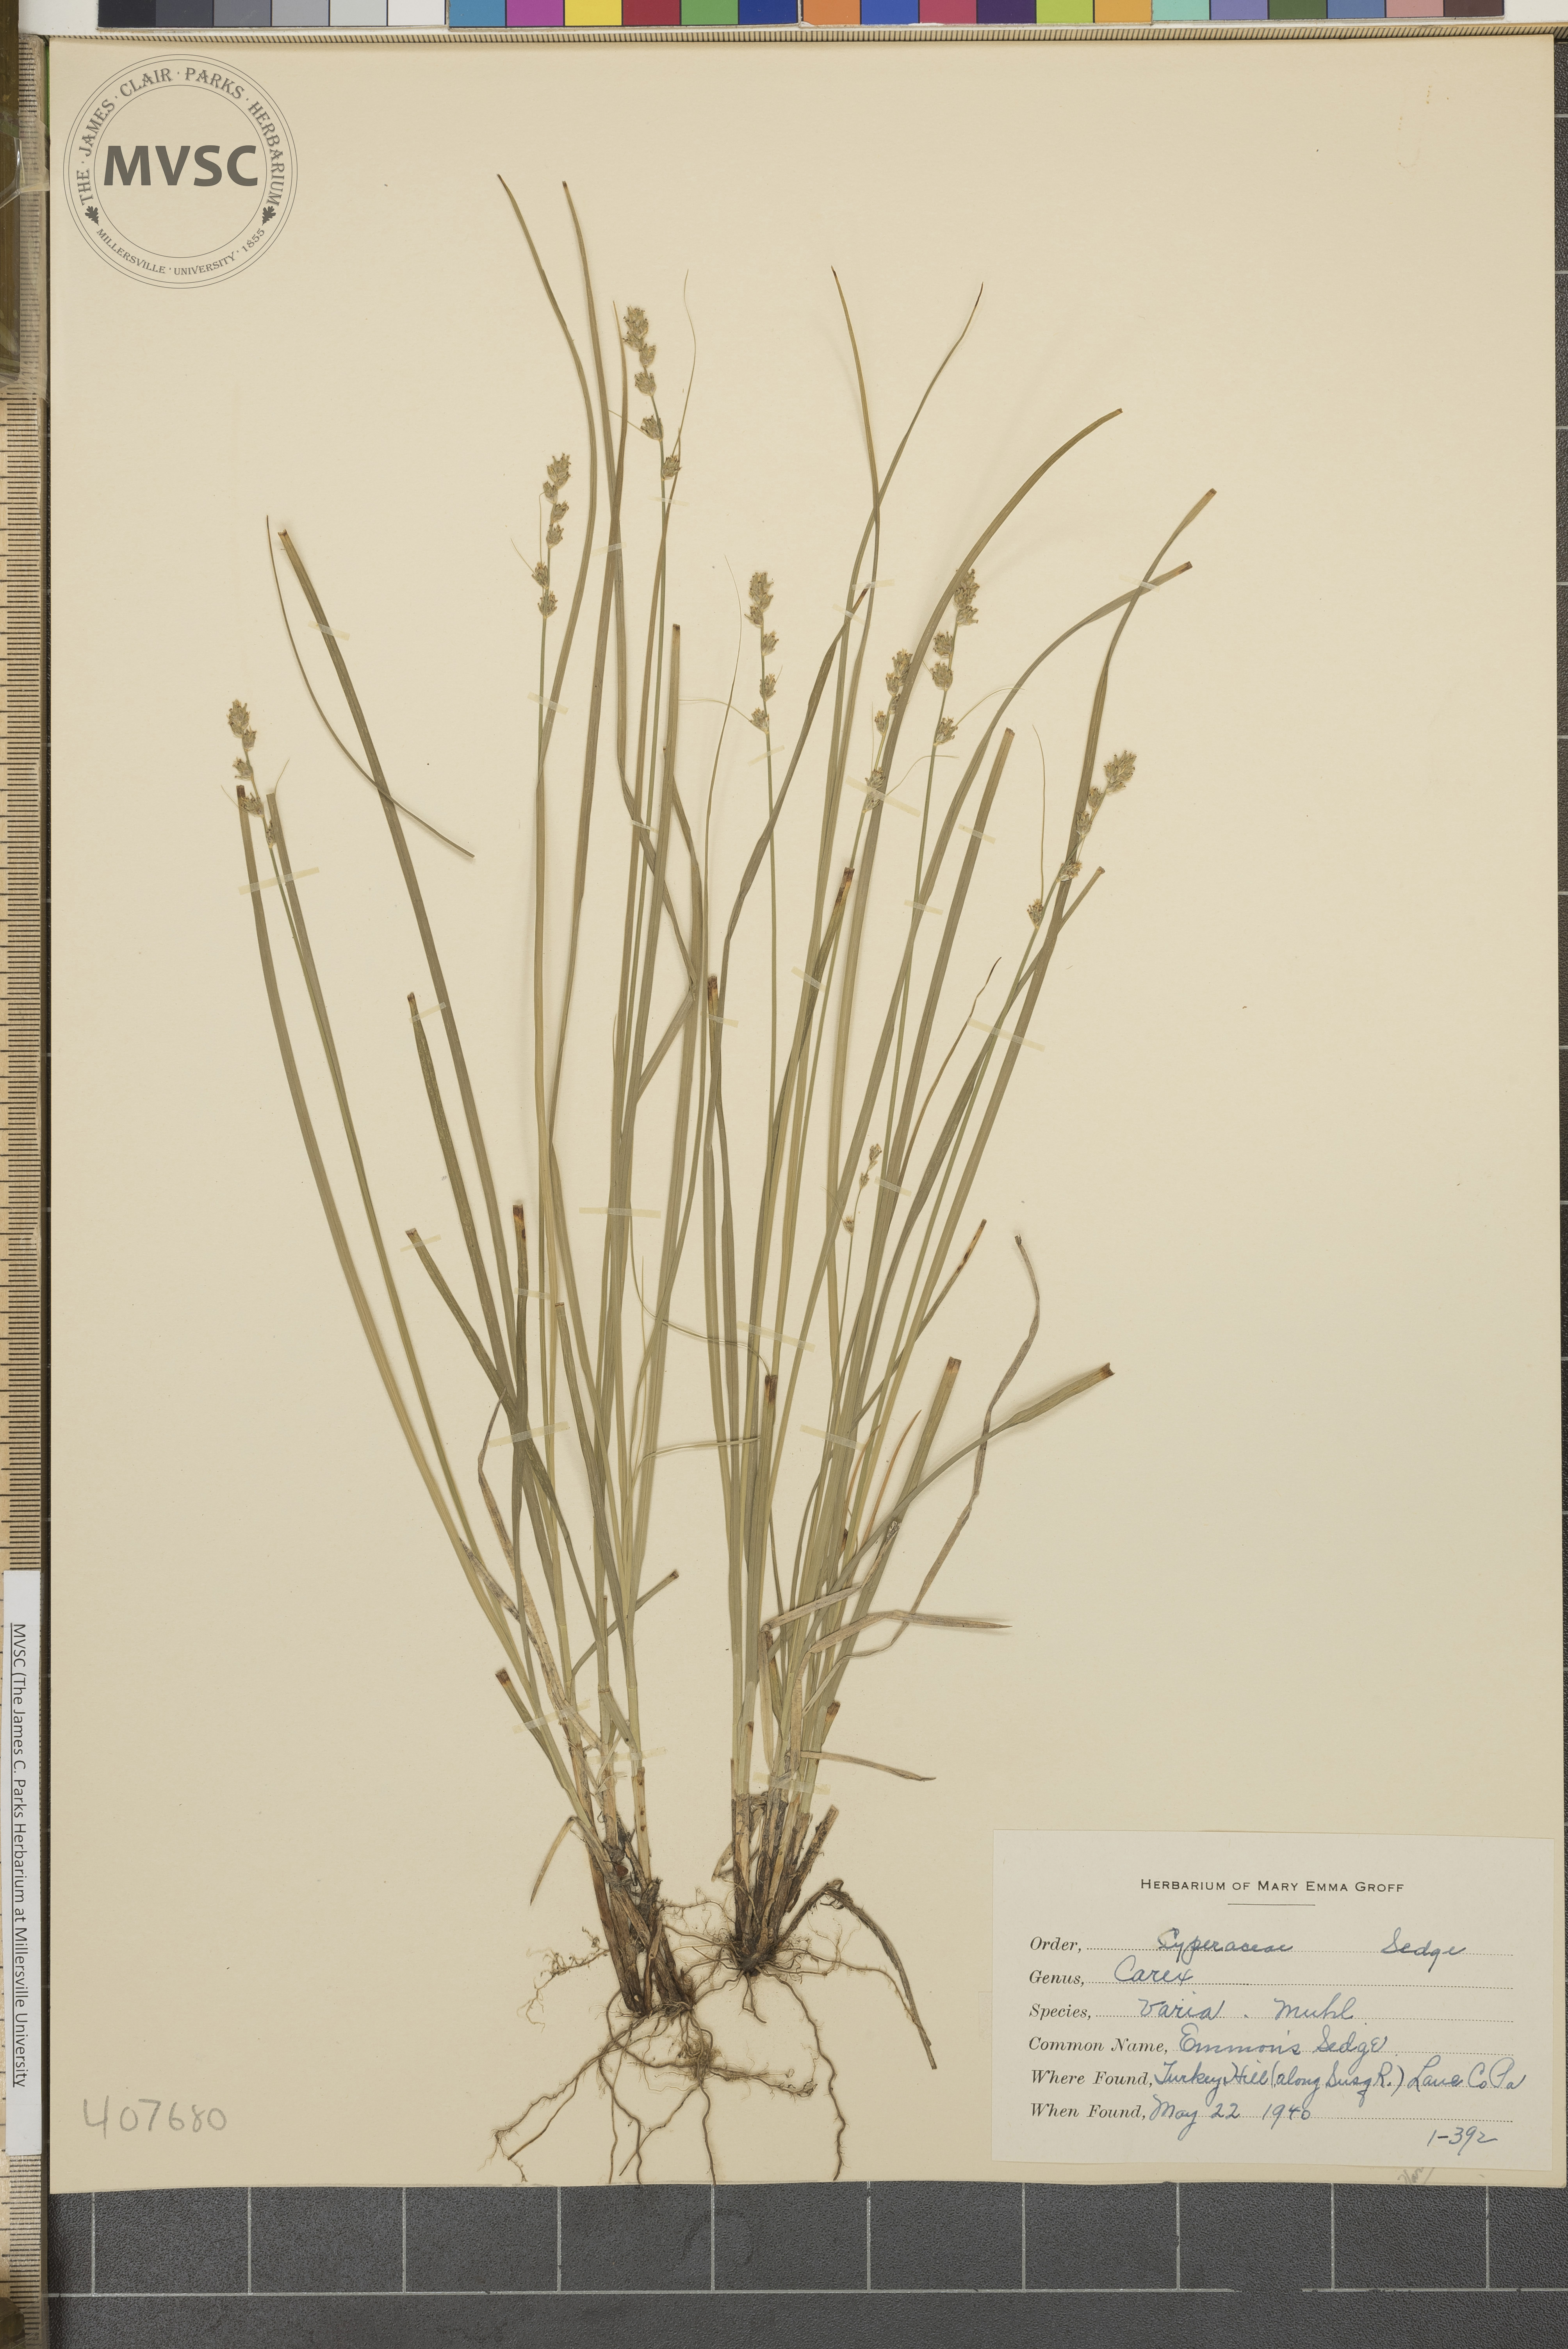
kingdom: Plantae
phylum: Tracheophyta
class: Liliopsida
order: Poales
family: Cyperaceae
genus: Carex
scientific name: Carex varia
